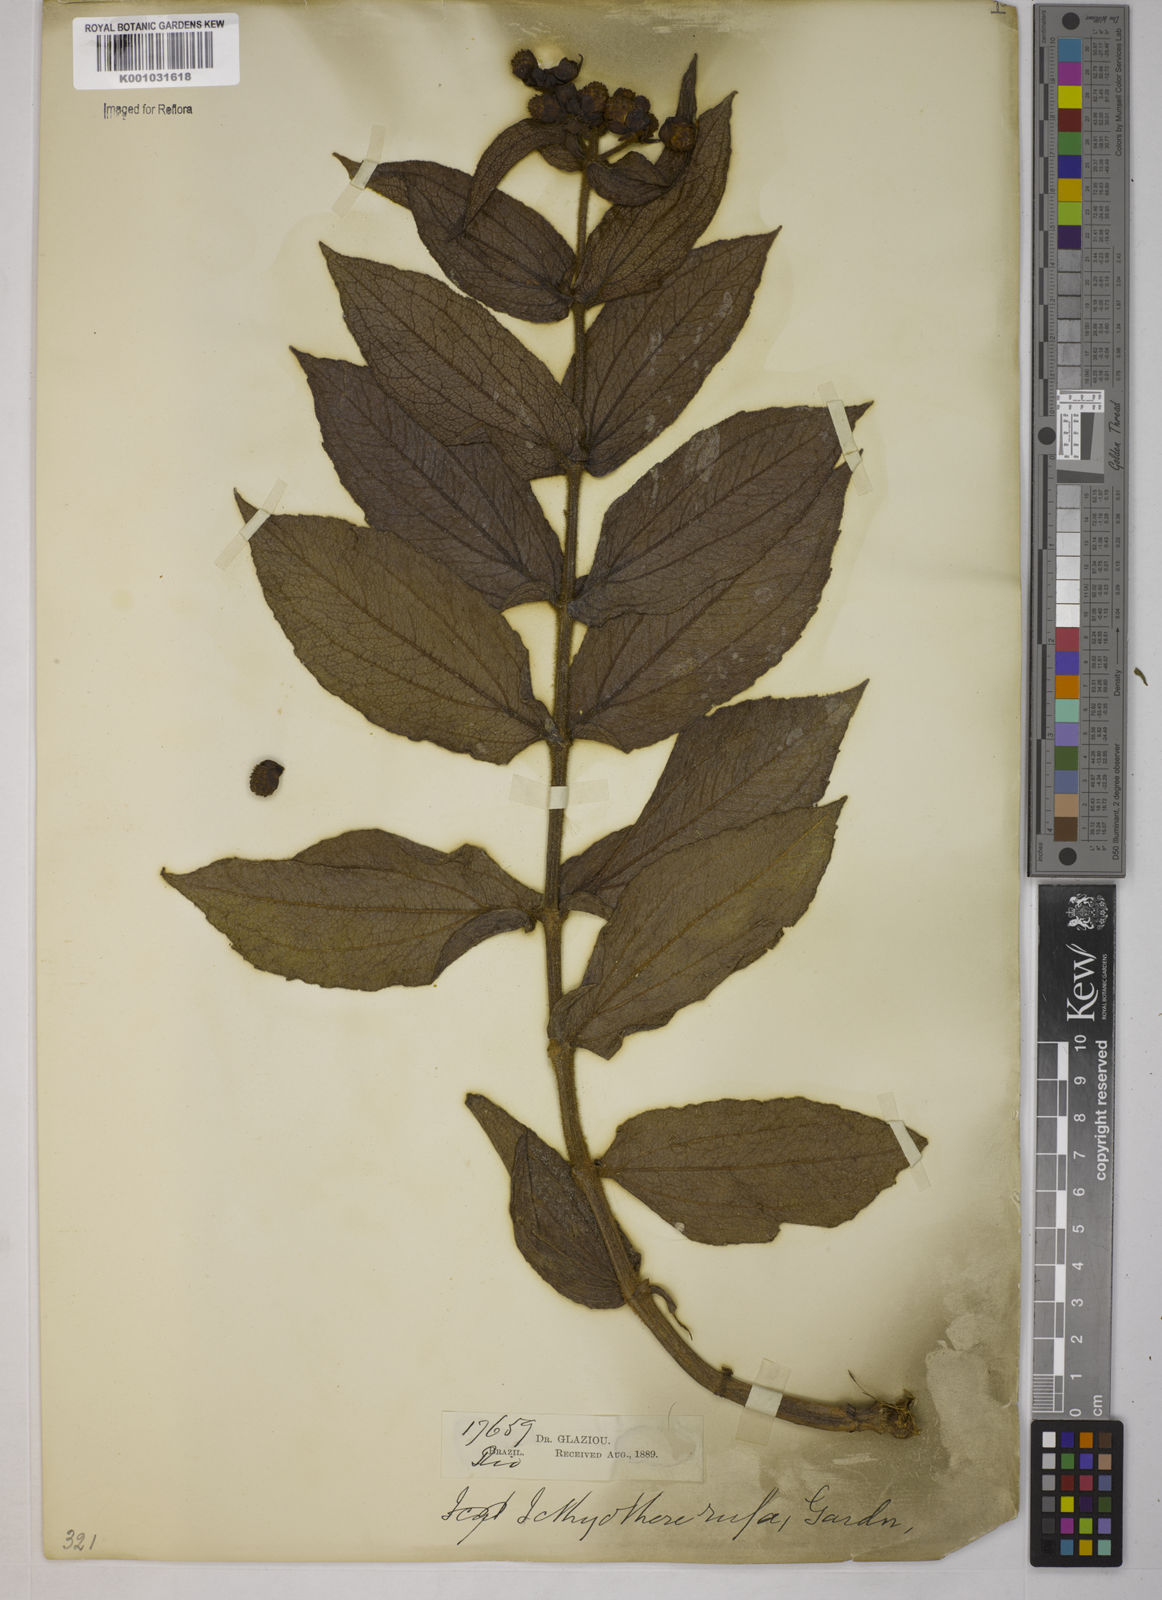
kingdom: Plantae
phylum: Tracheophyta
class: Magnoliopsida
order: Asterales
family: Asteraceae
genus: Ichthyothere
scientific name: Ichthyothere rufa
